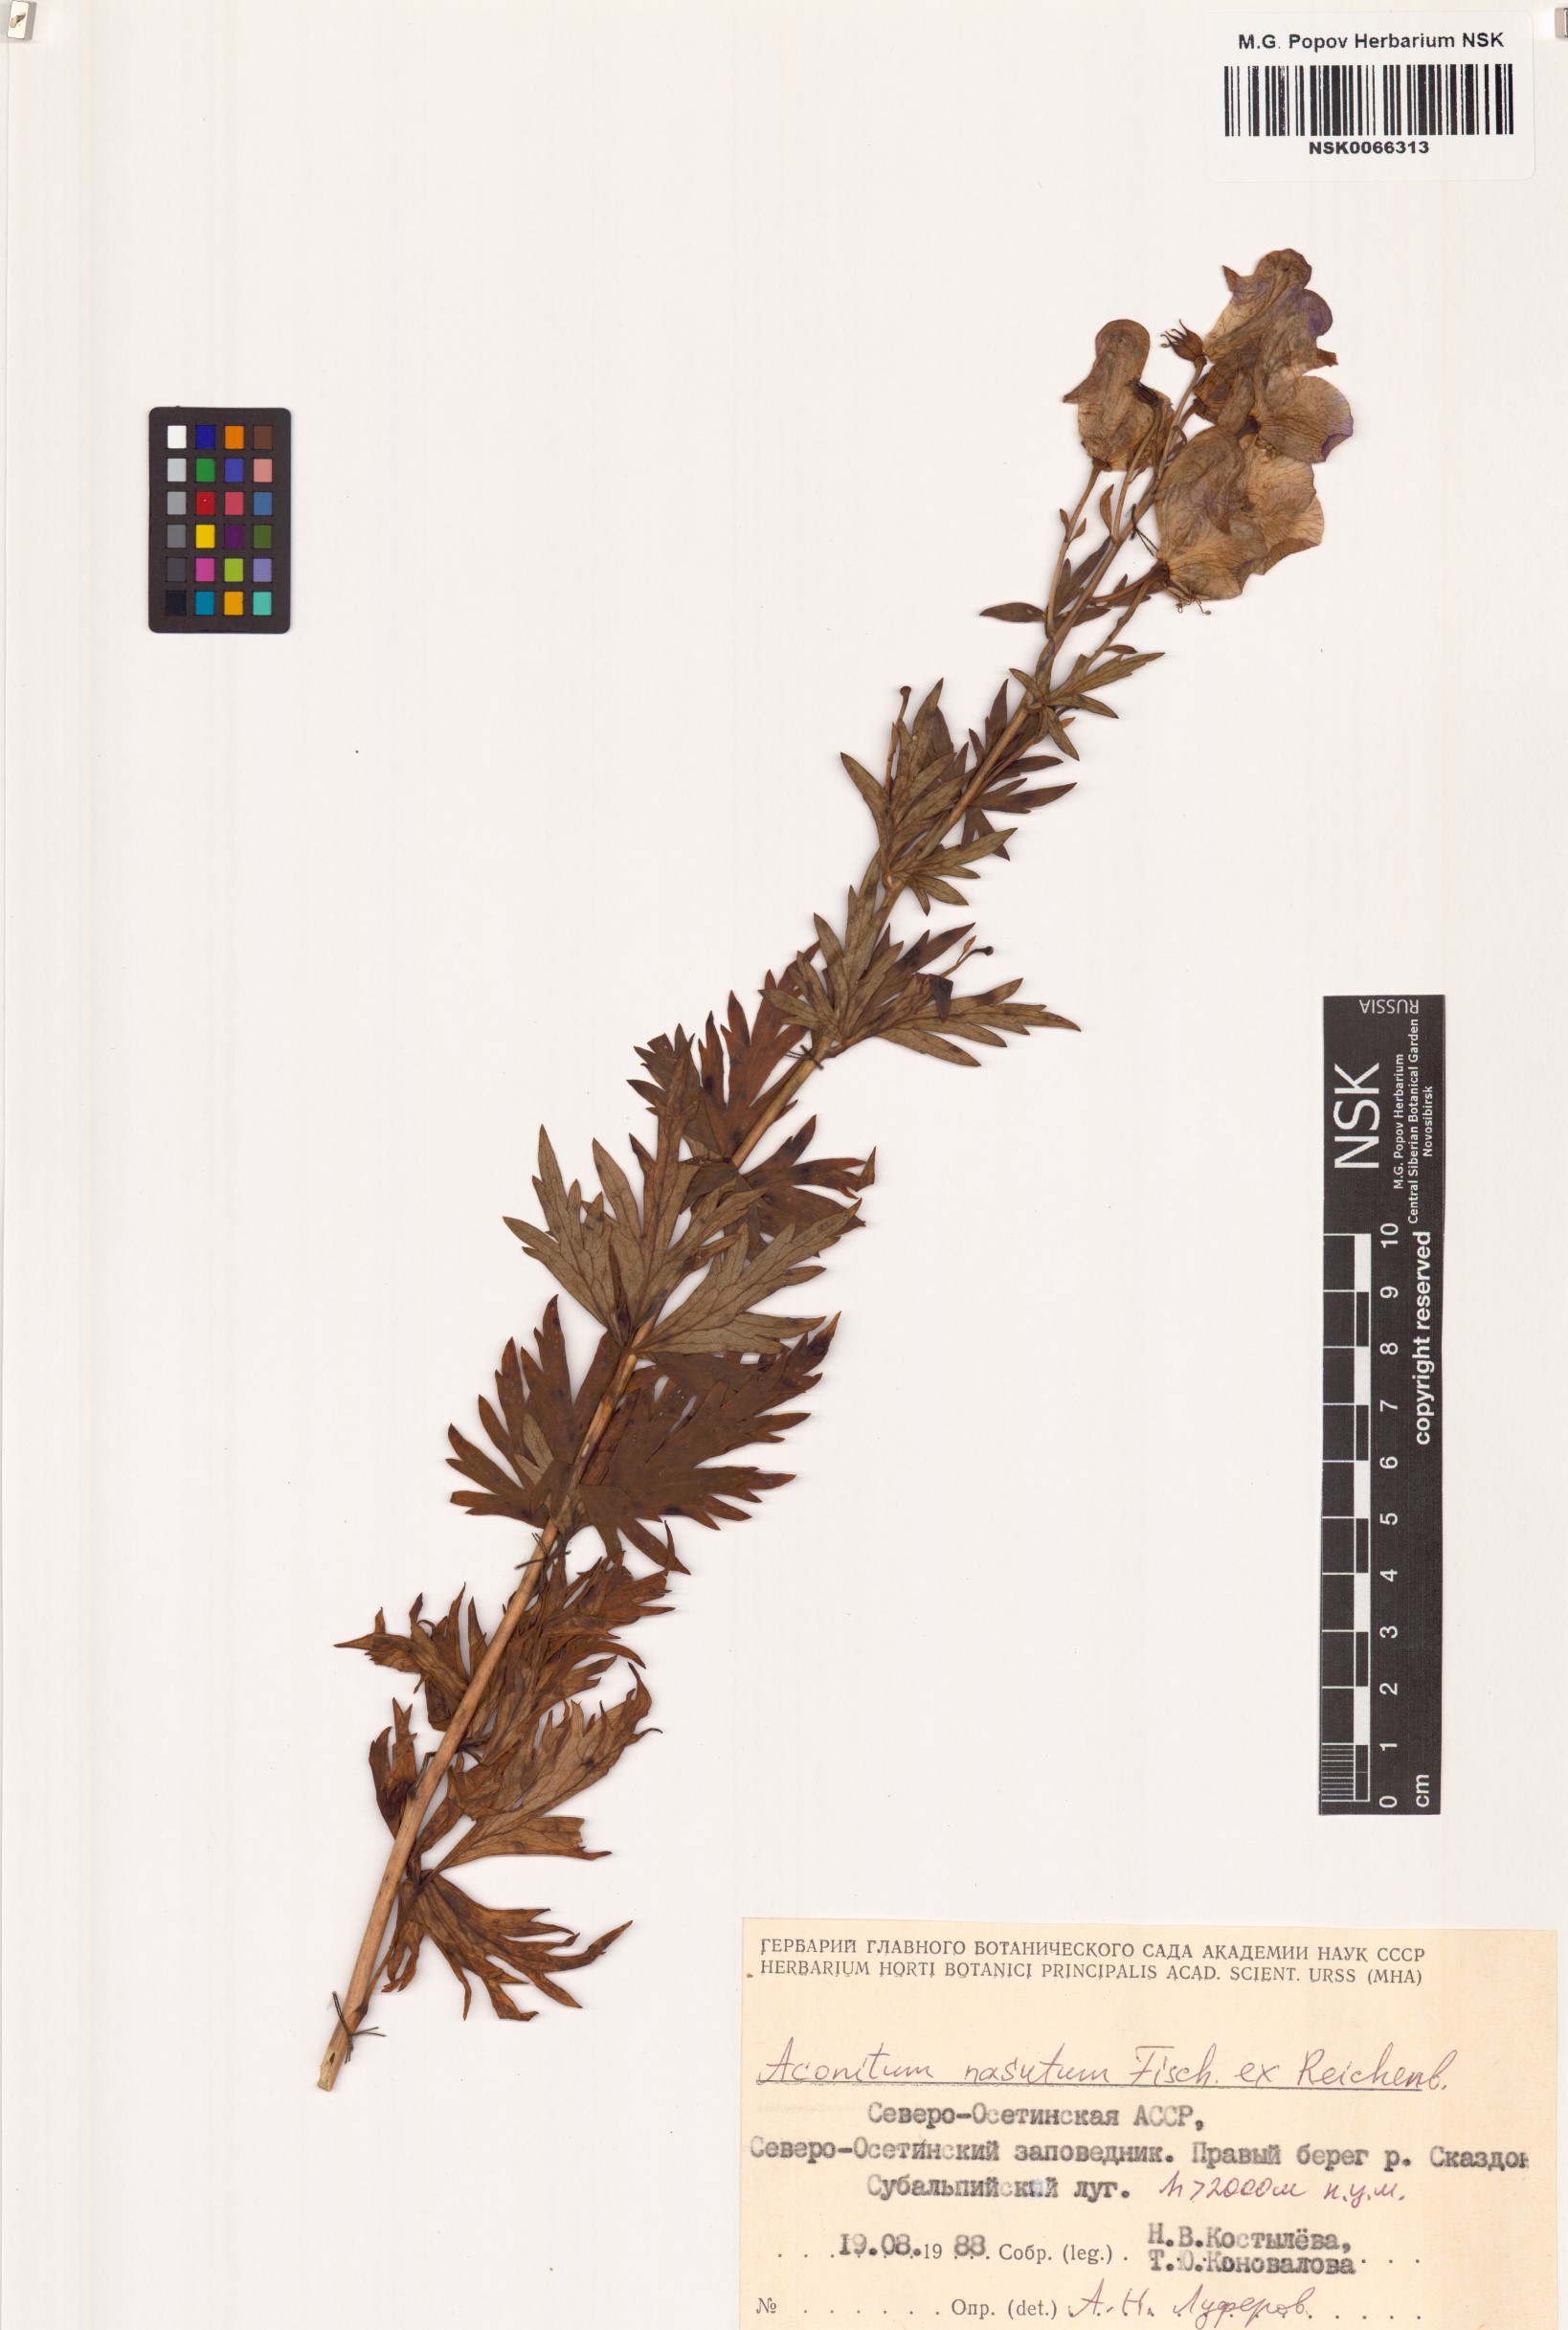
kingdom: Plantae
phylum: Tracheophyta
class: Magnoliopsida
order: Ranunculales
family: Ranunculaceae
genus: Aconitum
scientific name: Aconitum variegatum
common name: Manchurian monkshood
